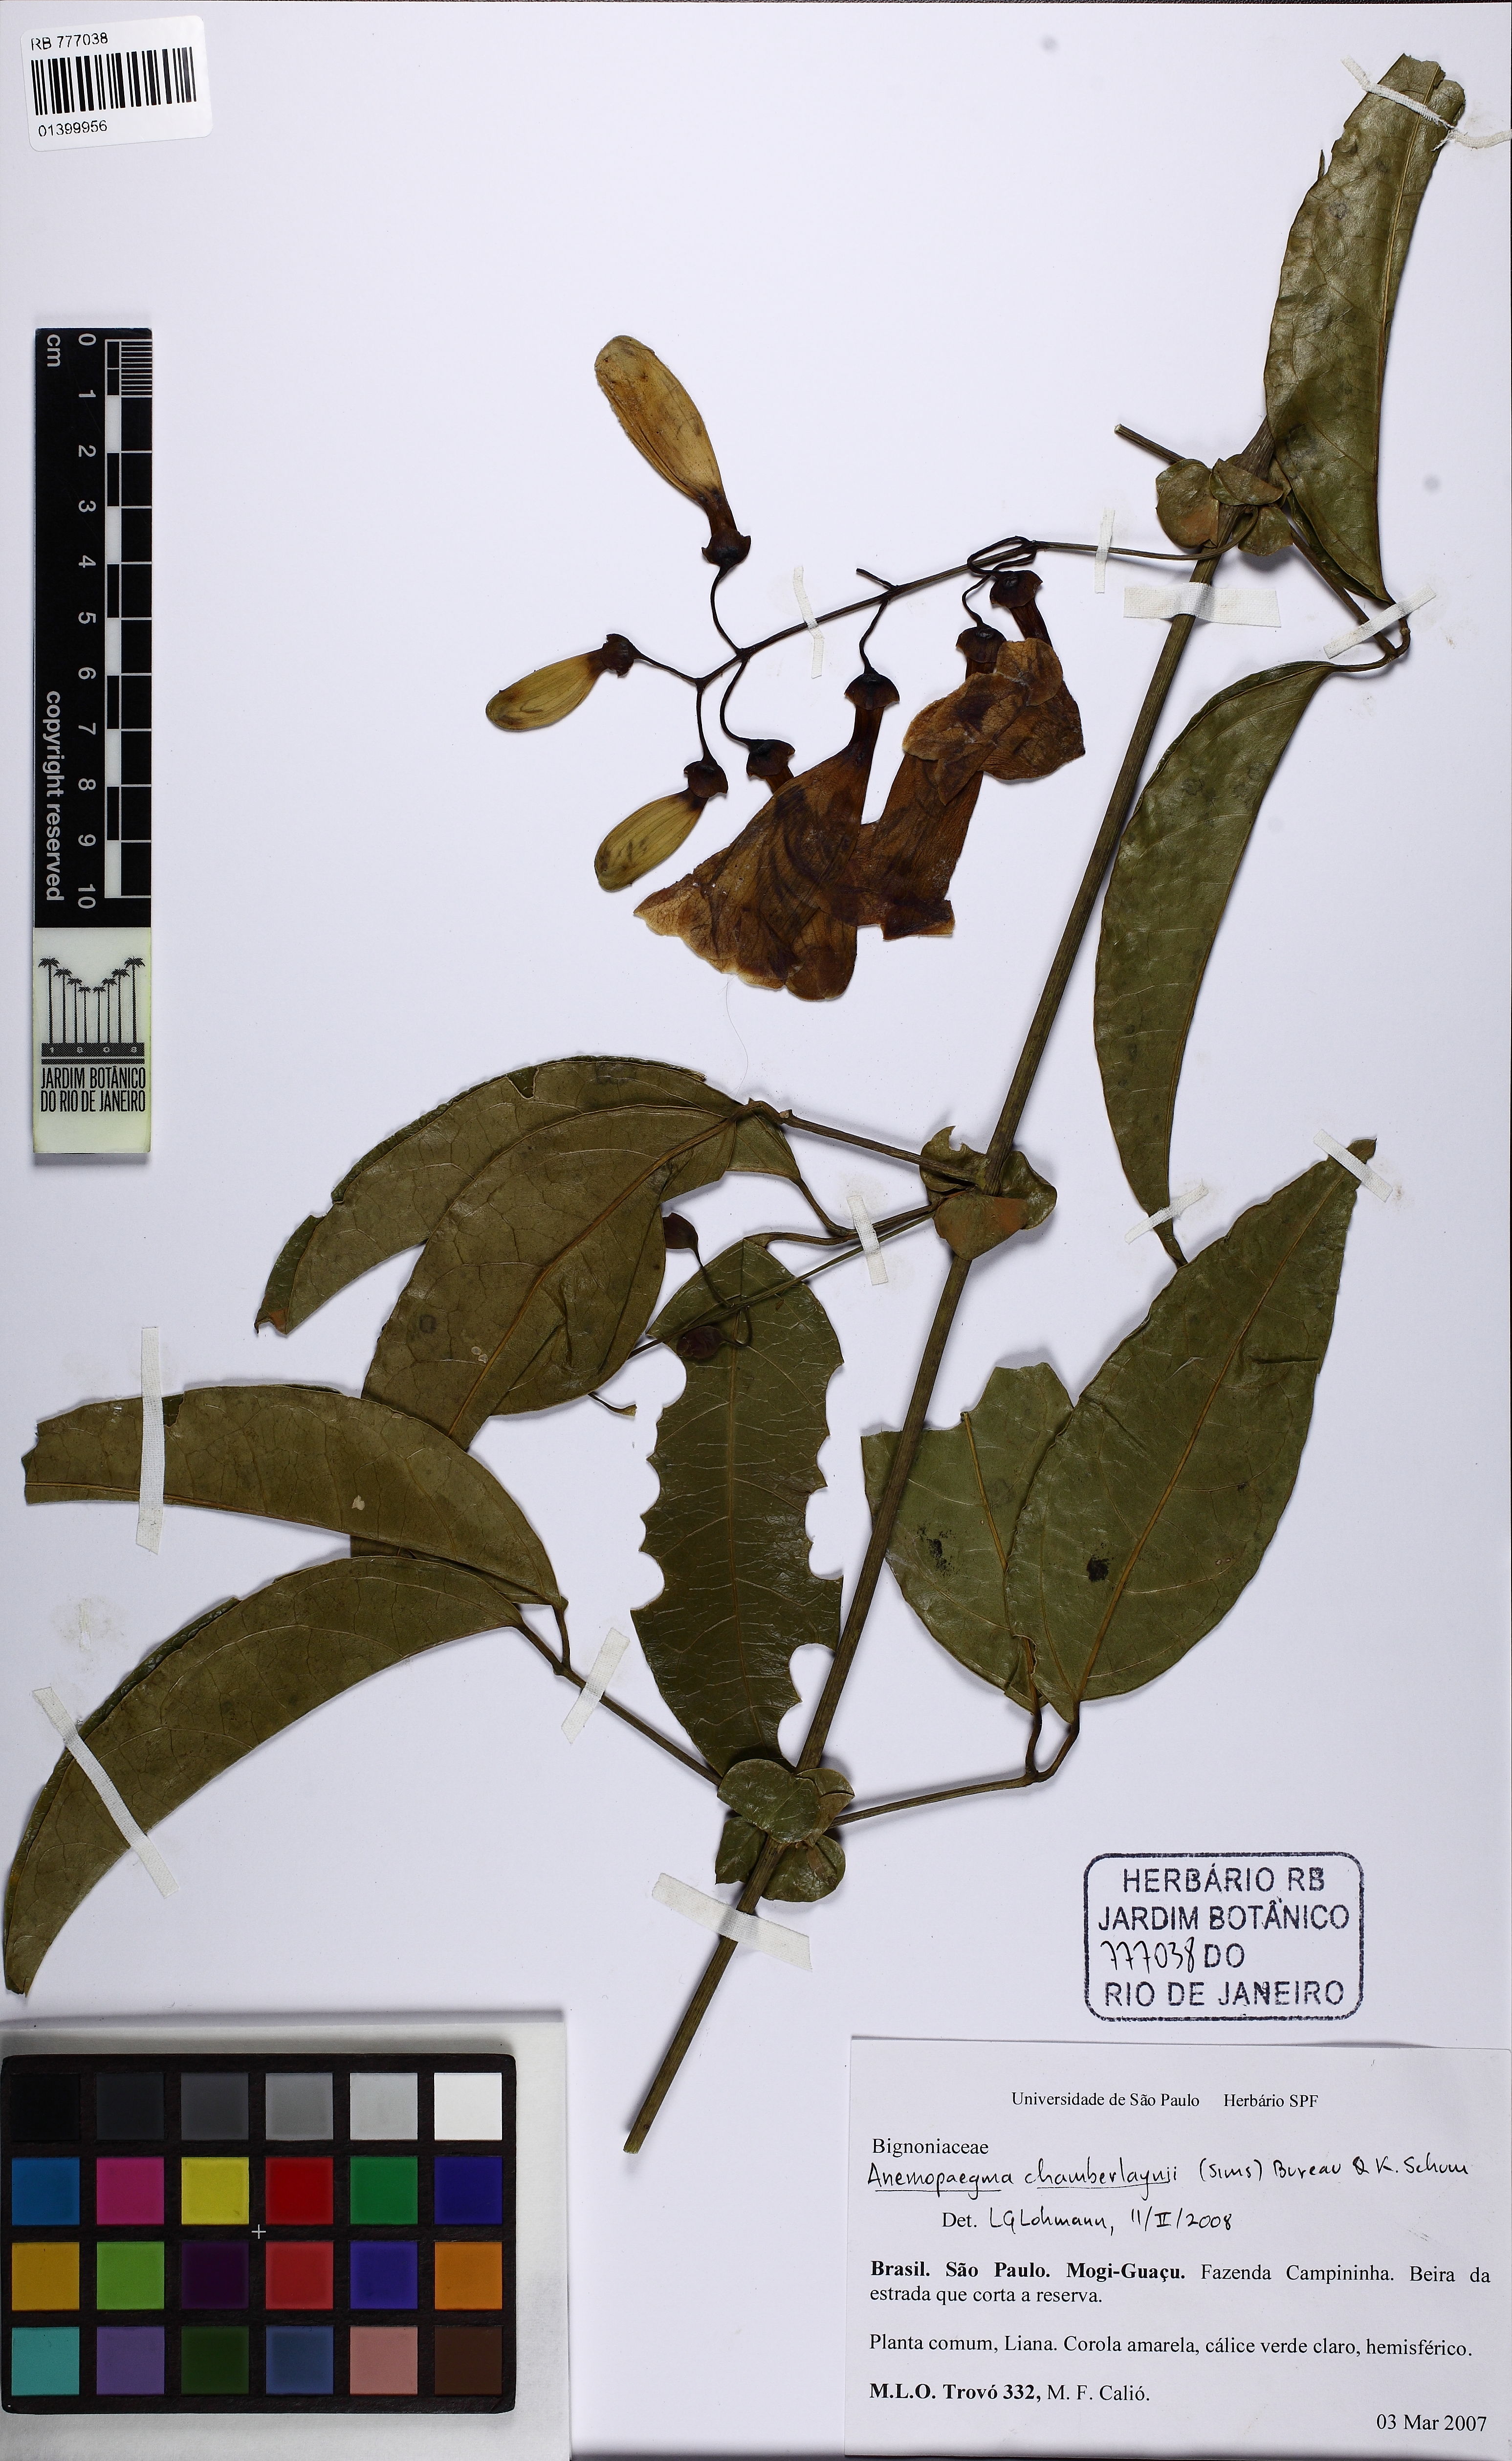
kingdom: Plantae
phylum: Tracheophyta
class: Magnoliopsida
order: Lamiales
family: Bignoniaceae
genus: Anemopaegma
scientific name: Anemopaegma chamberlaynii
